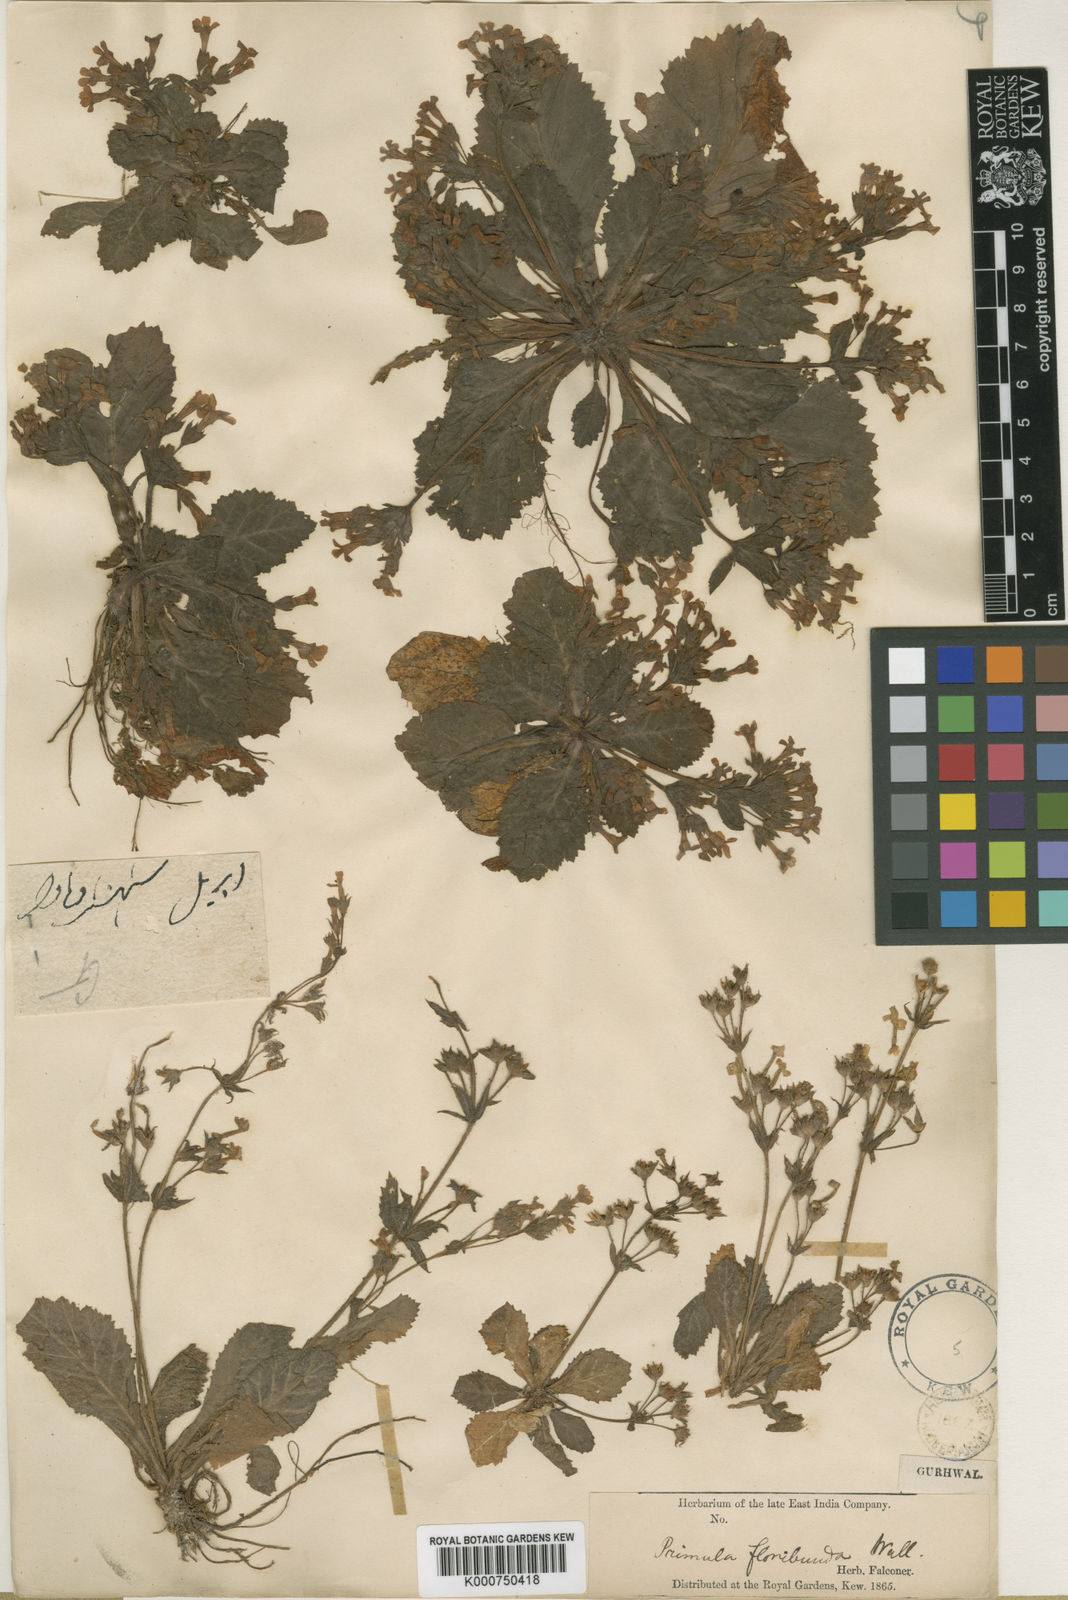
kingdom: Plantae
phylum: Tracheophyta
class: Magnoliopsida
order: Ericales
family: Primulaceae
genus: Evotrochis
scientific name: Evotrochis floribunda
